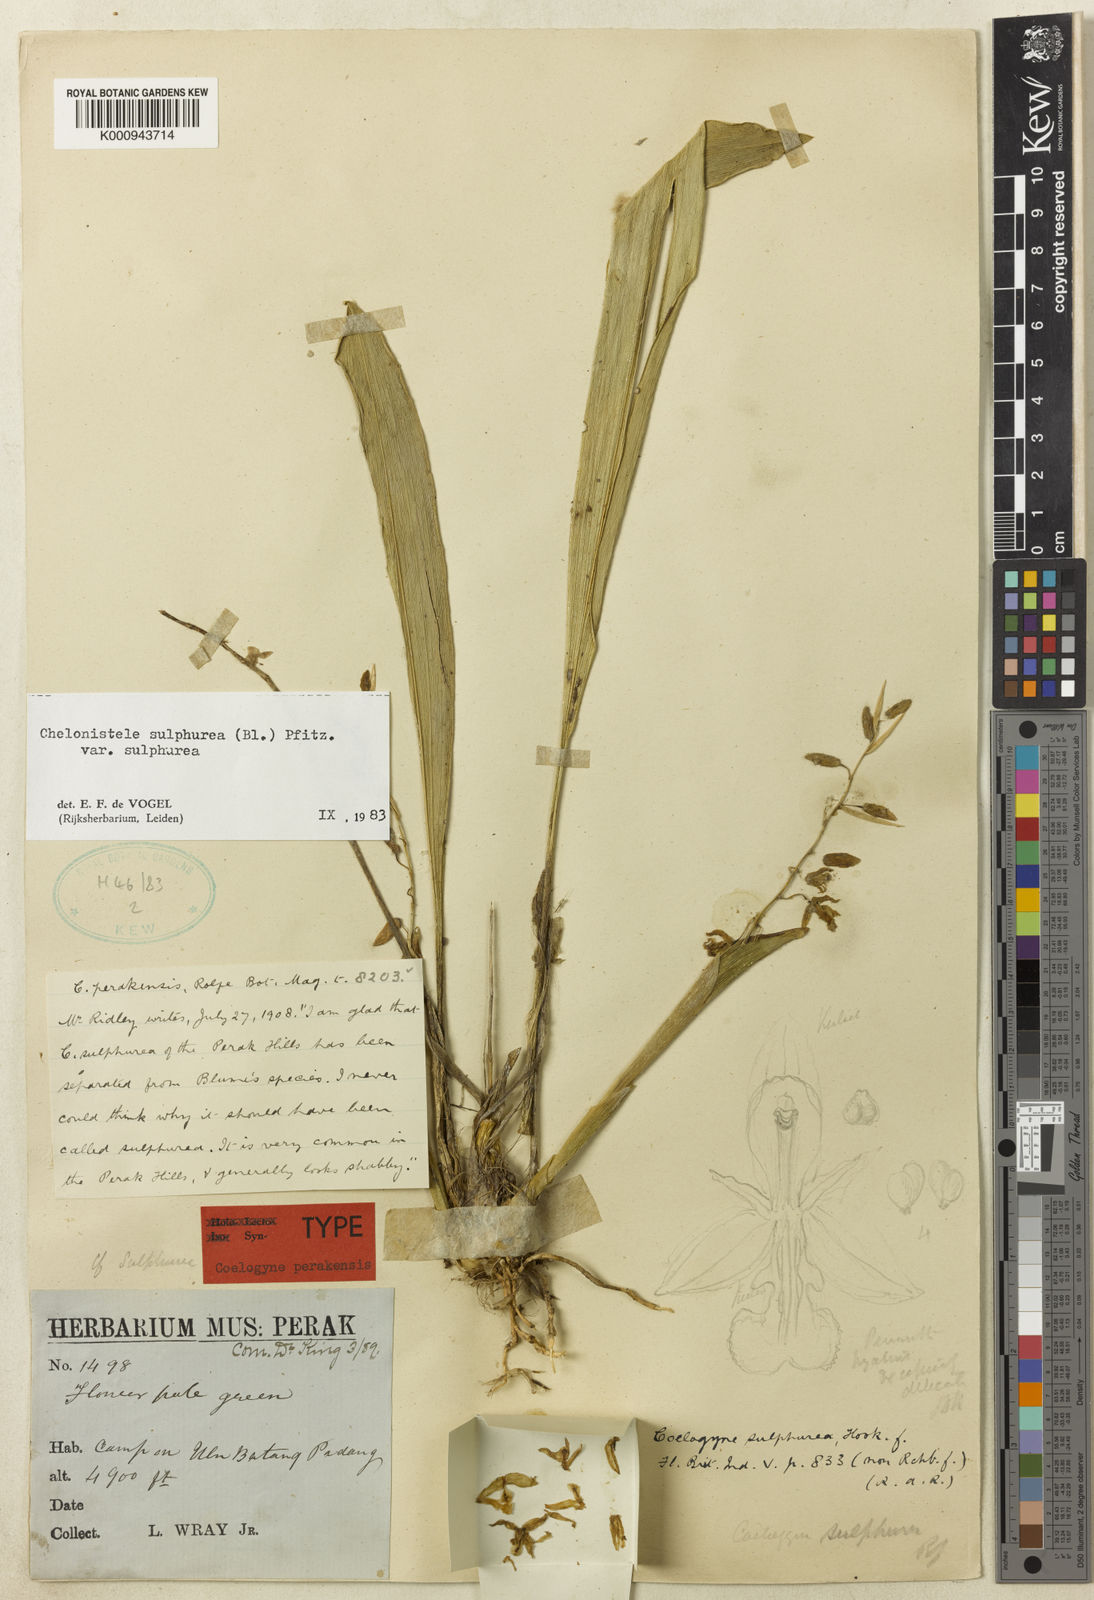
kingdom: Plantae
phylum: Tracheophyta
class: Liliopsida
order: Asparagales
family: Orchidaceae
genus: Coelogyne
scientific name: Coelogyne sulphurea
